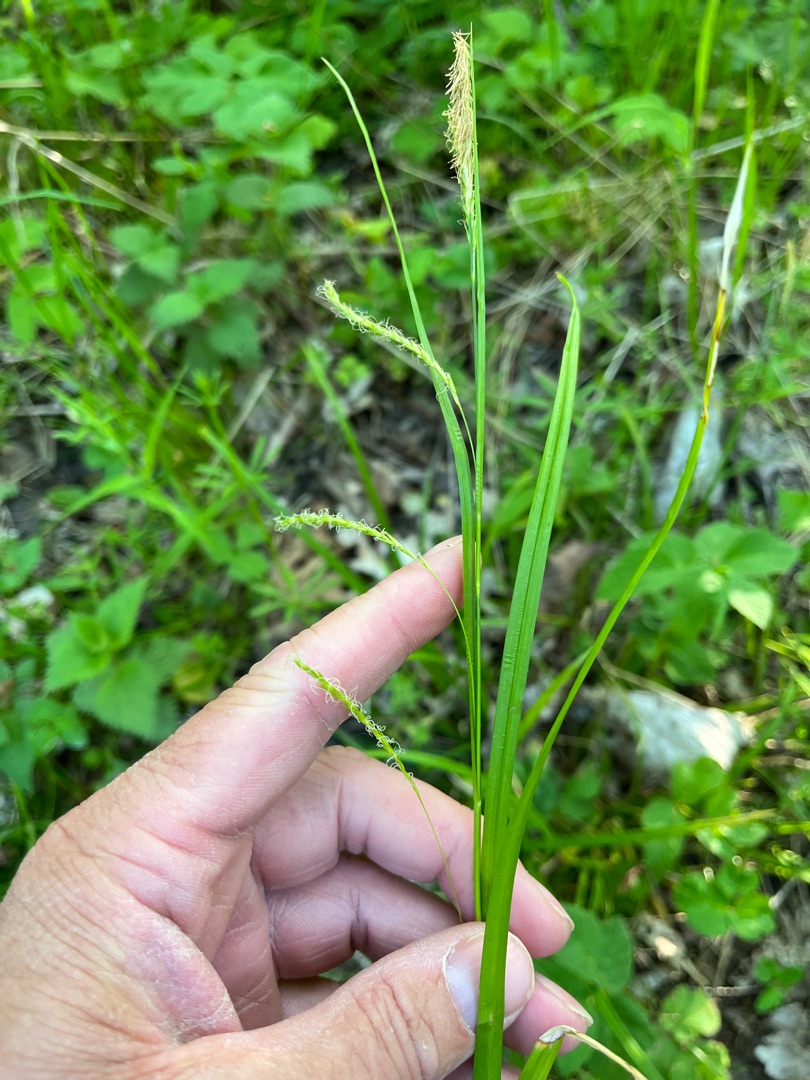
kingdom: Plantae
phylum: Tracheophyta
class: Liliopsida
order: Poales
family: Cyperaceae
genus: Carex
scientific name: Carex sylvatica
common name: Skov-star
